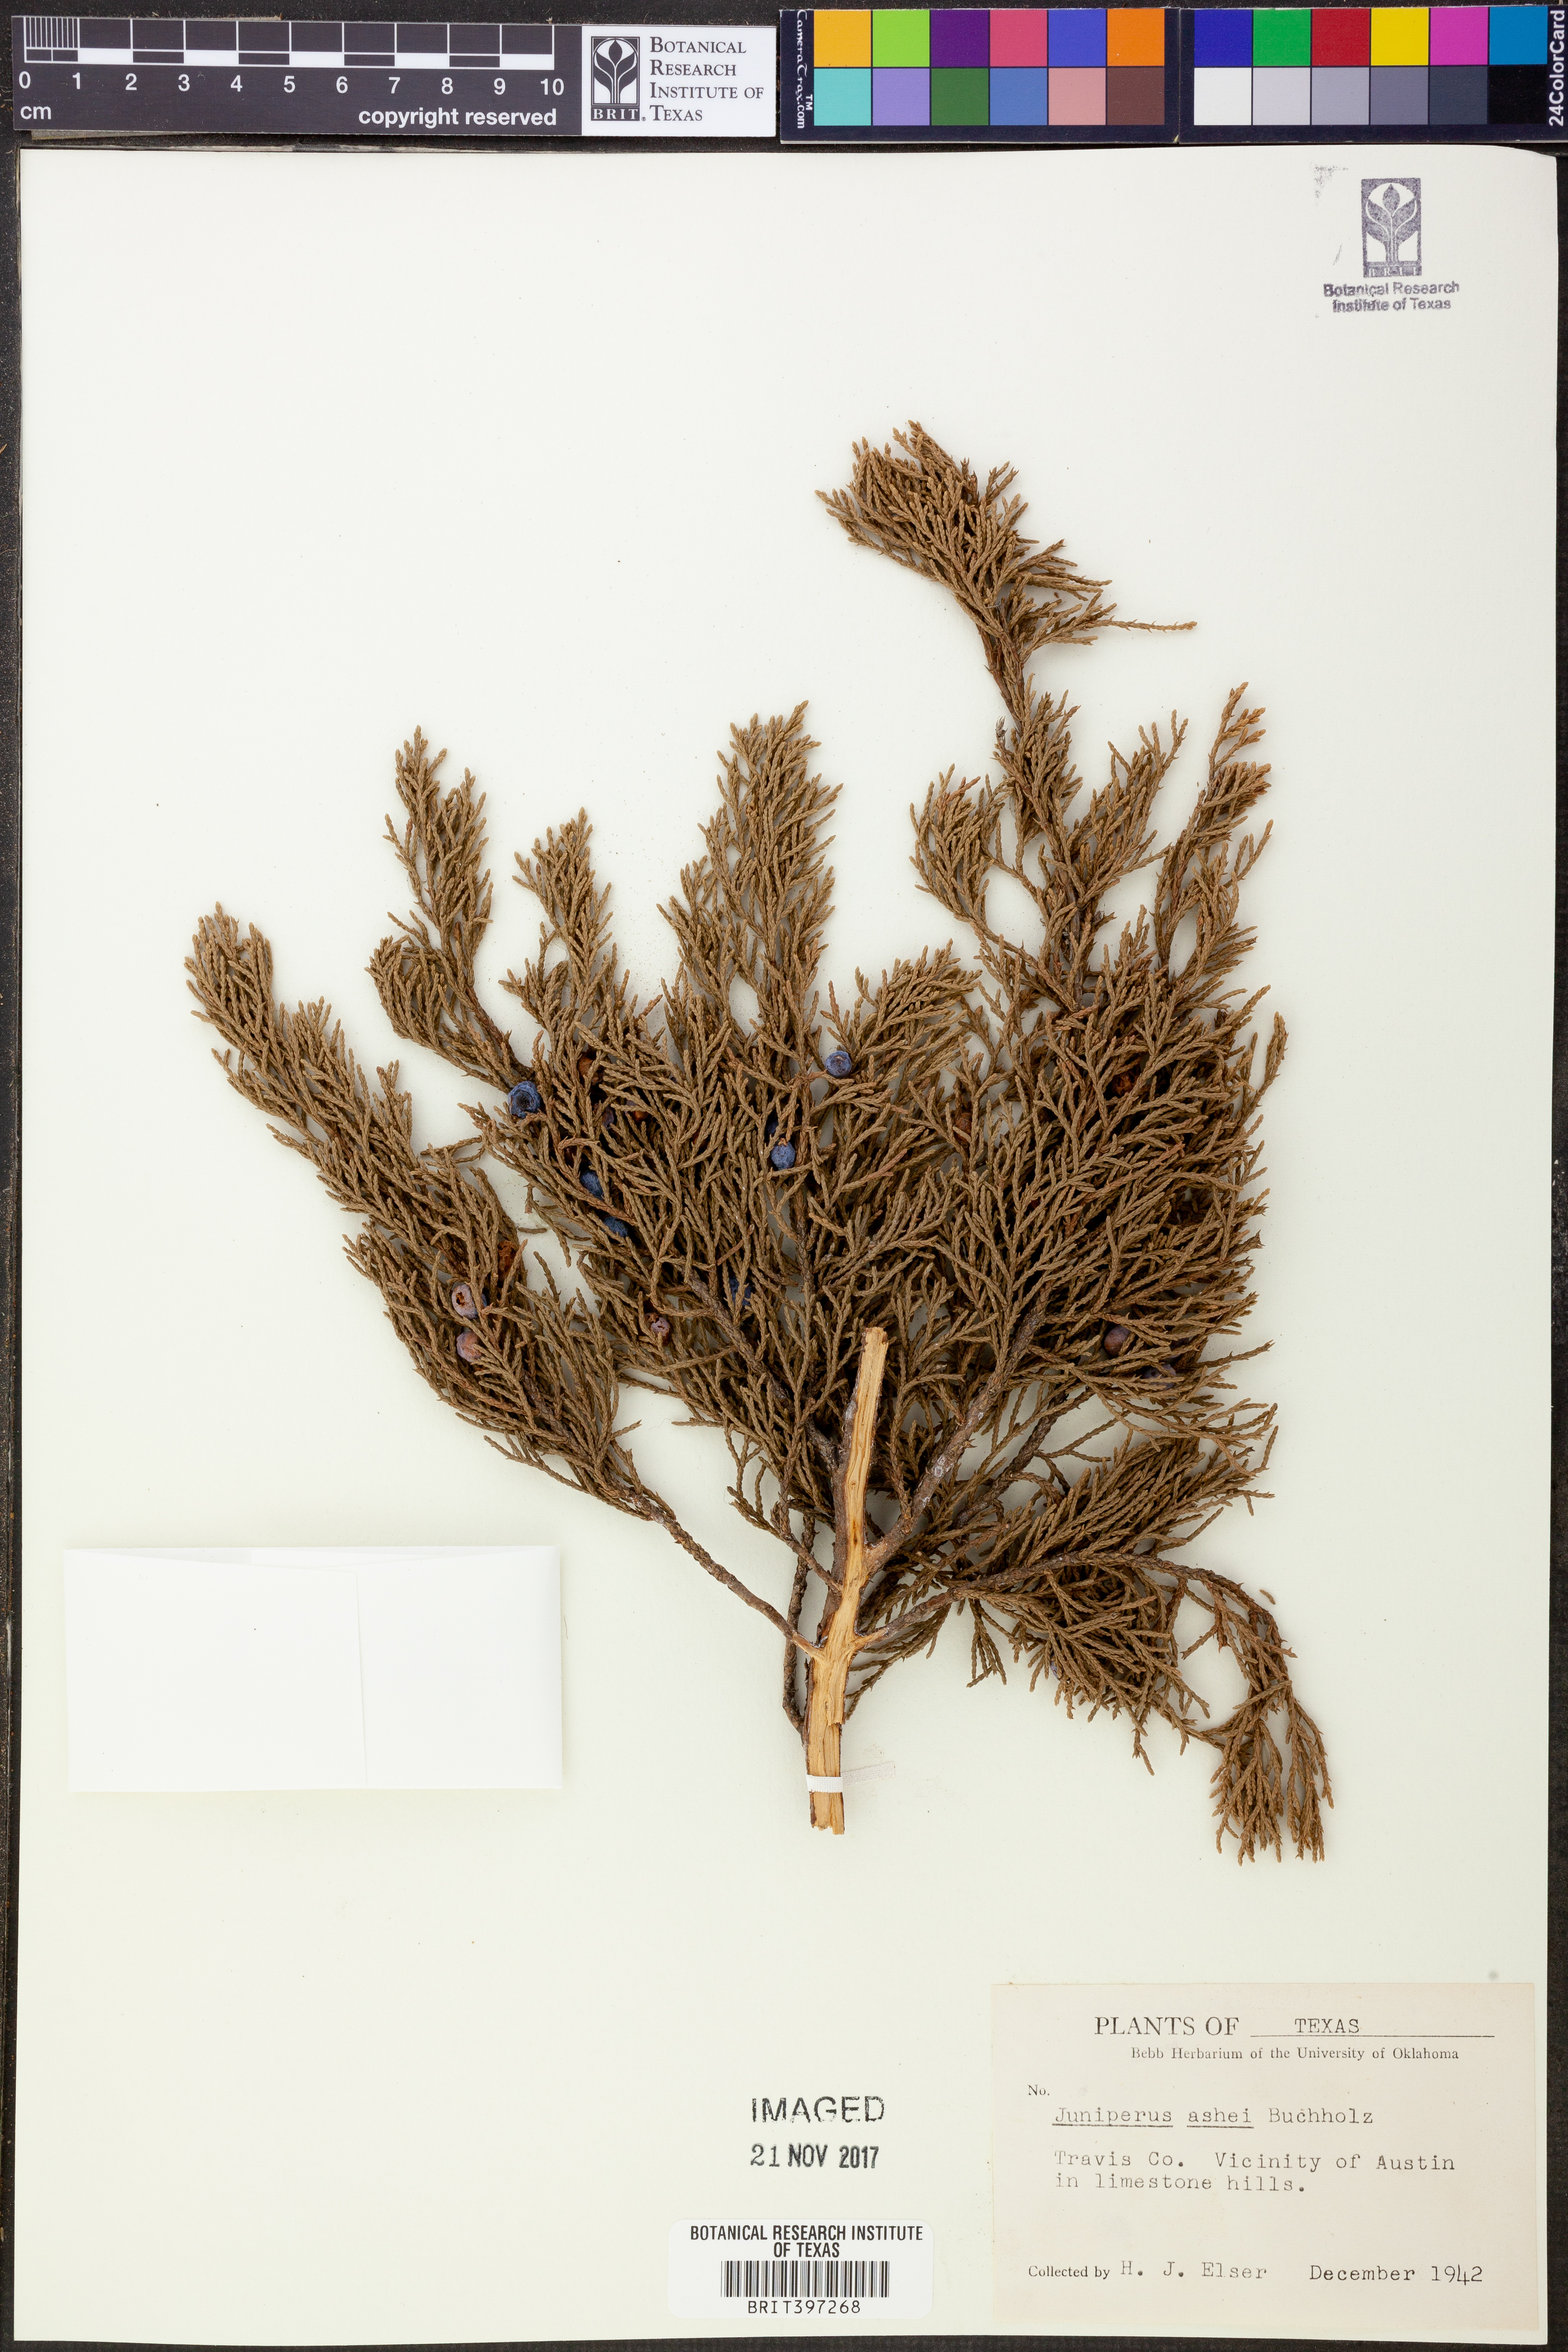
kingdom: Plantae
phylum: Tracheophyta
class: Pinopsida
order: Pinales
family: Cupressaceae
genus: Juniperus
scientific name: Juniperus ashei
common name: Mexican juniper
